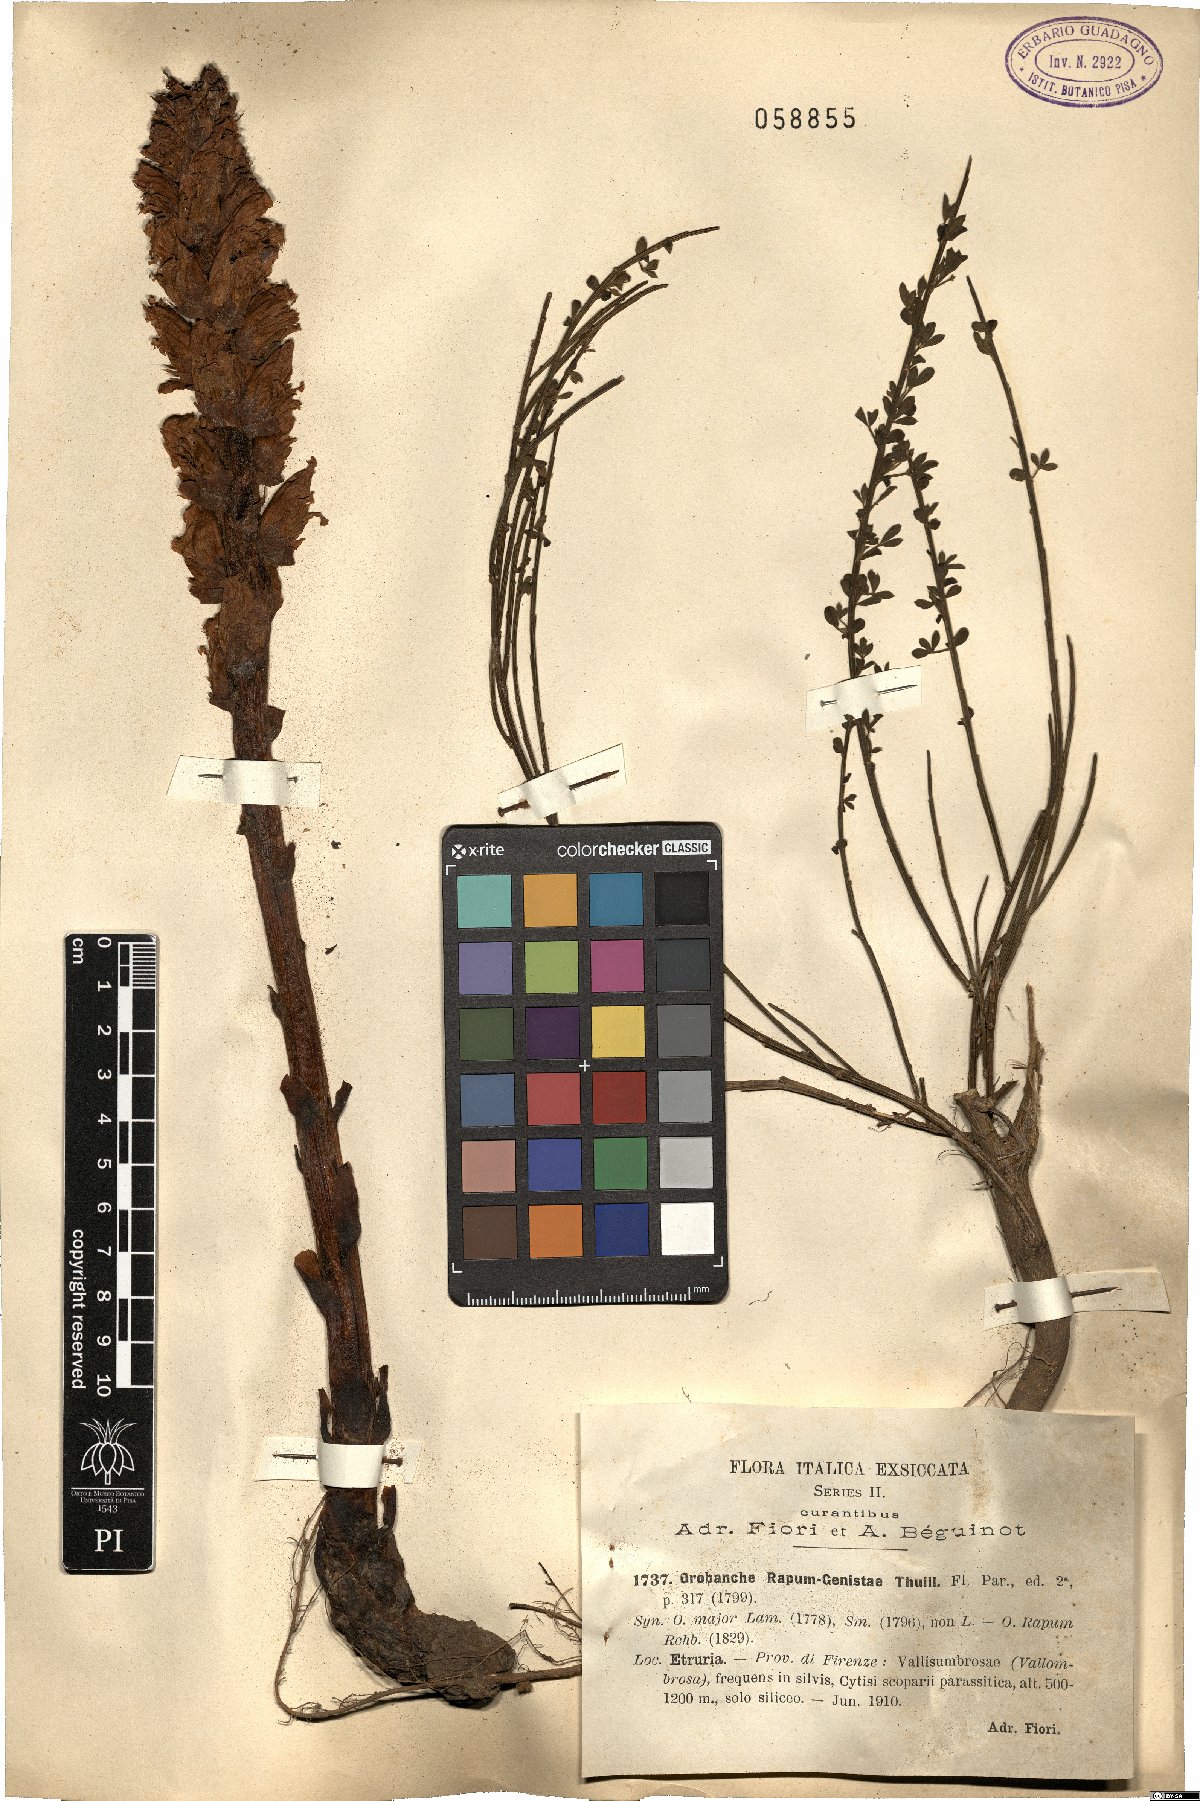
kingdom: Plantae
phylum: Tracheophyta
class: Magnoliopsida
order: Lamiales
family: Orobanchaceae
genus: Orobanche
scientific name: Orobanche rapum-genistae
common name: Greater broomrape
